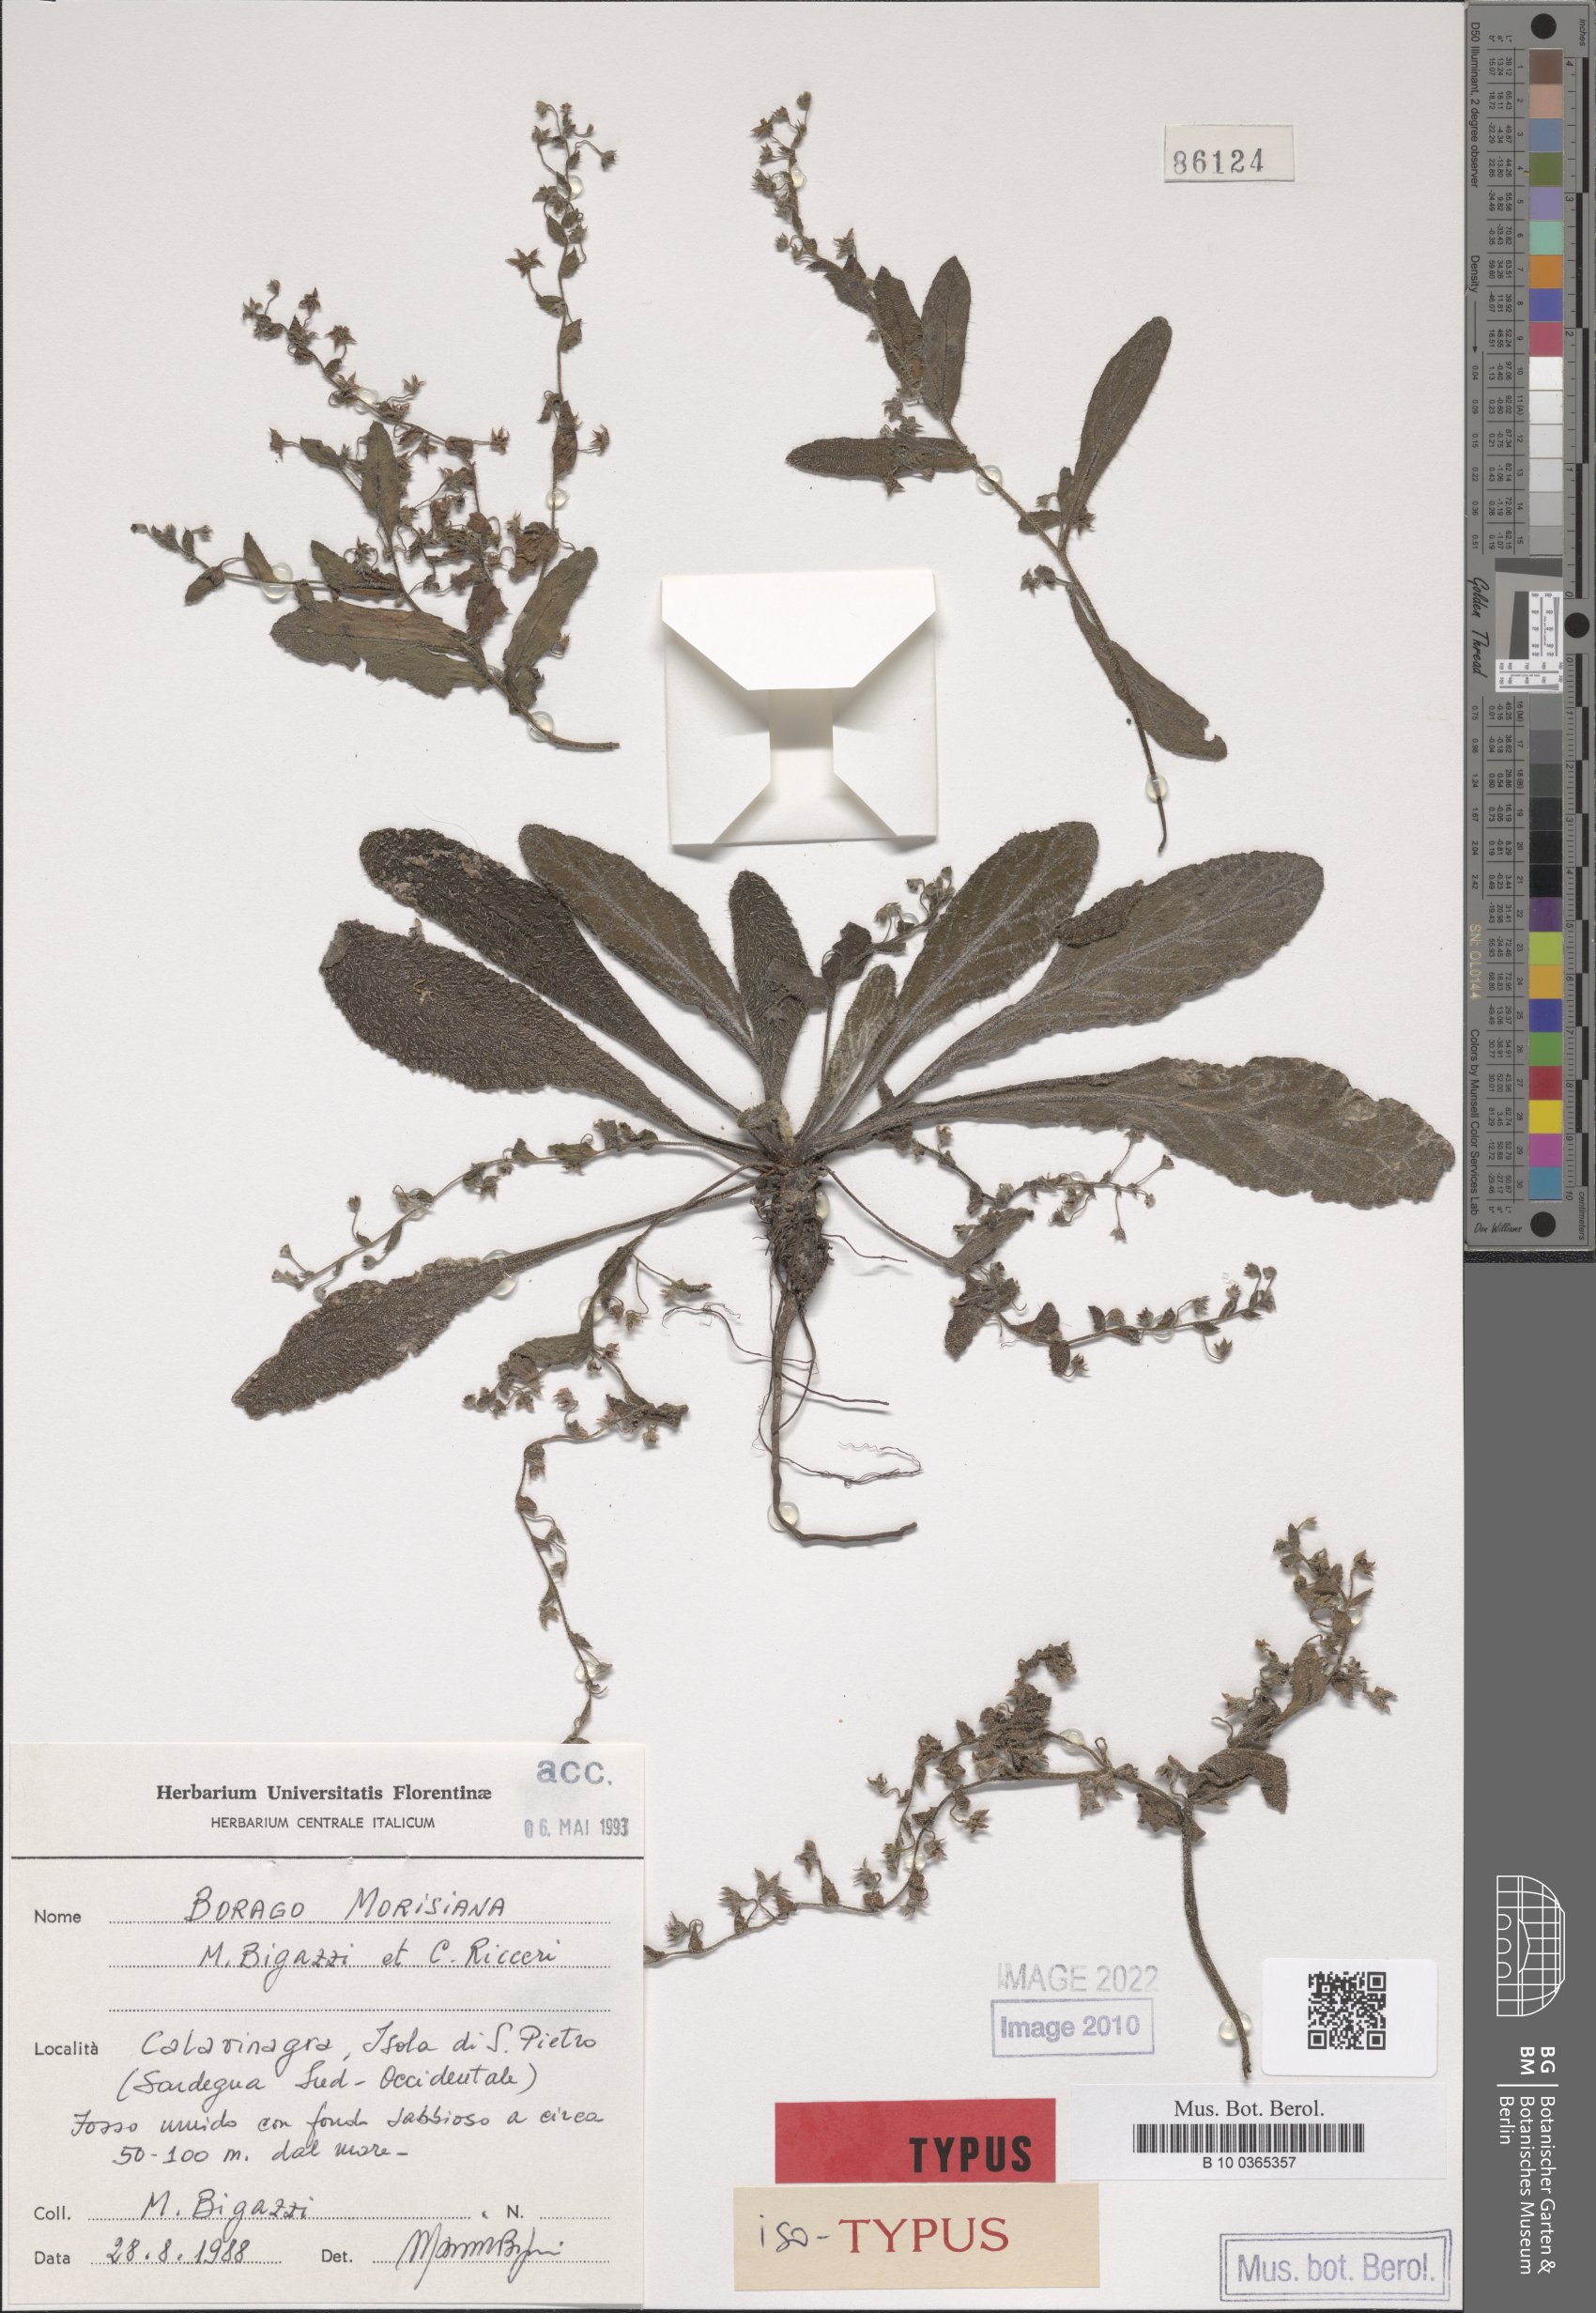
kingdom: Plantae
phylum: Tracheophyta
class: Magnoliopsida
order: Boraginales
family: Boraginaceae
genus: Borago
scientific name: Borago morisiana
